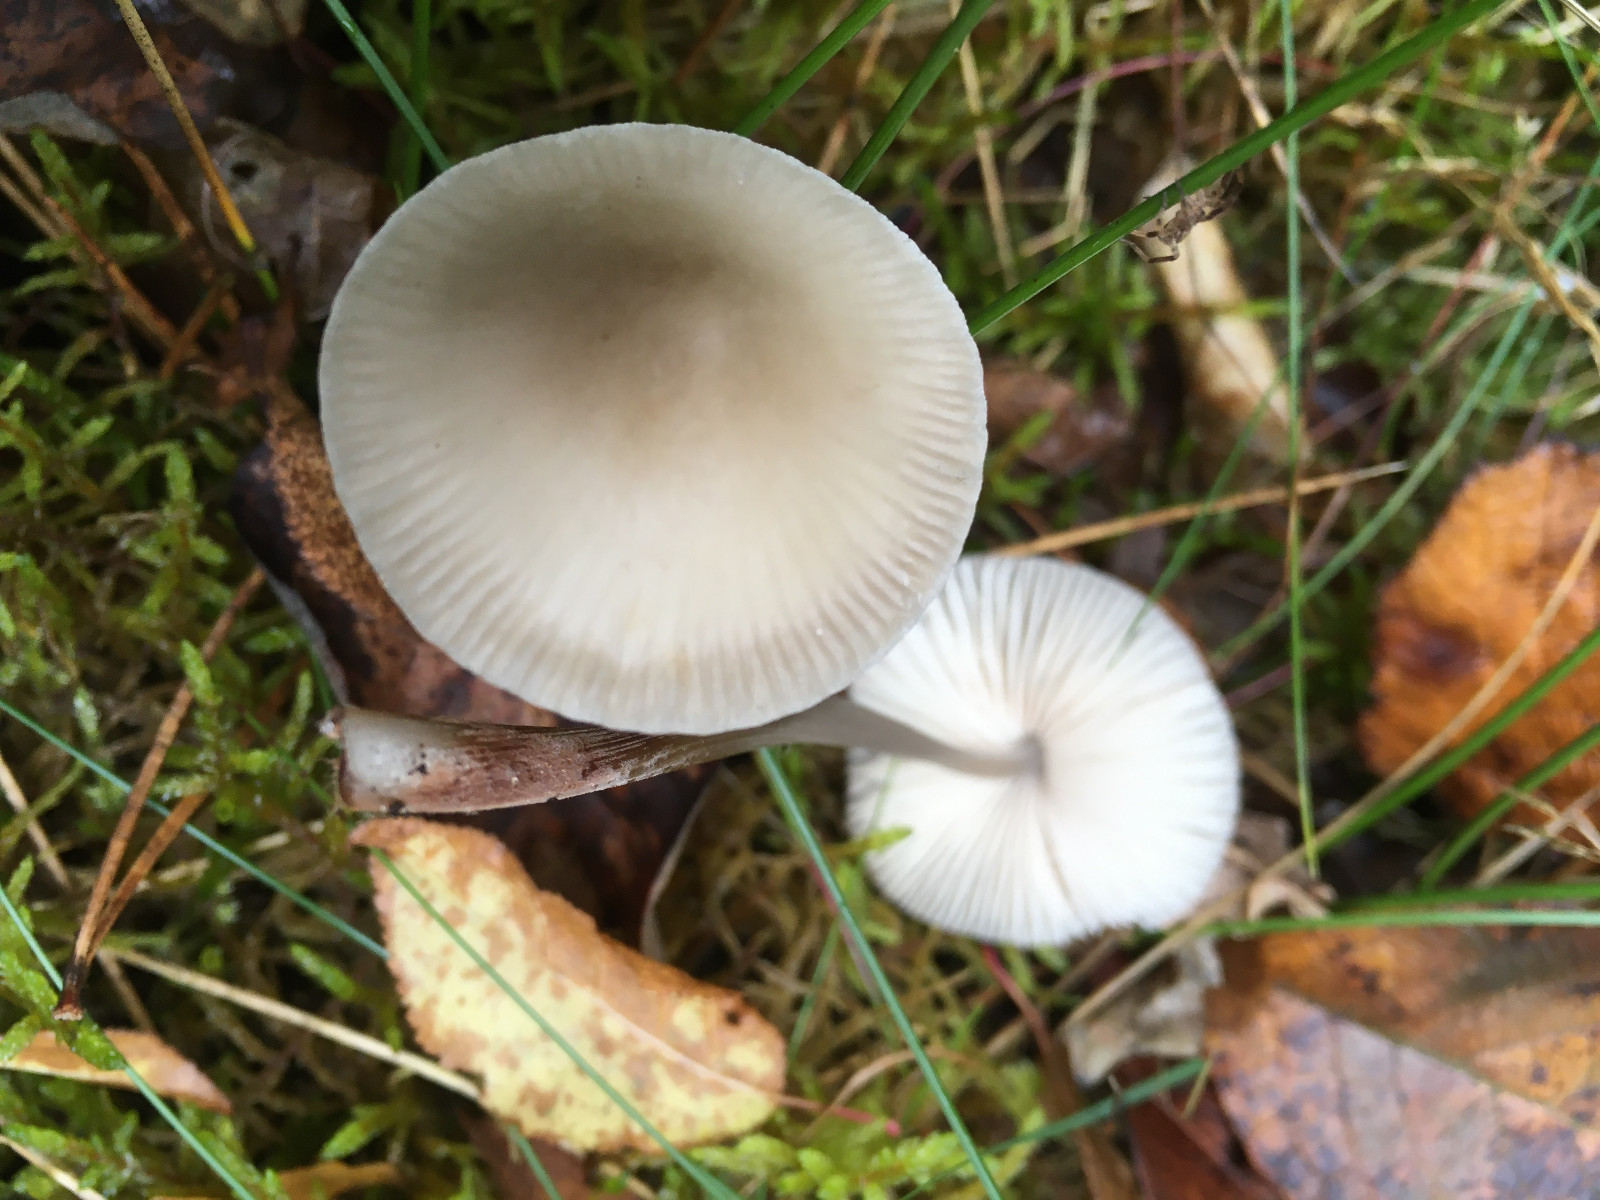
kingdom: Fungi
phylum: Basidiomycota
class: Agaricomycetes
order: Agaricales
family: Mycenaceae
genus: Mycena
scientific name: Mycena
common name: huesvamp
